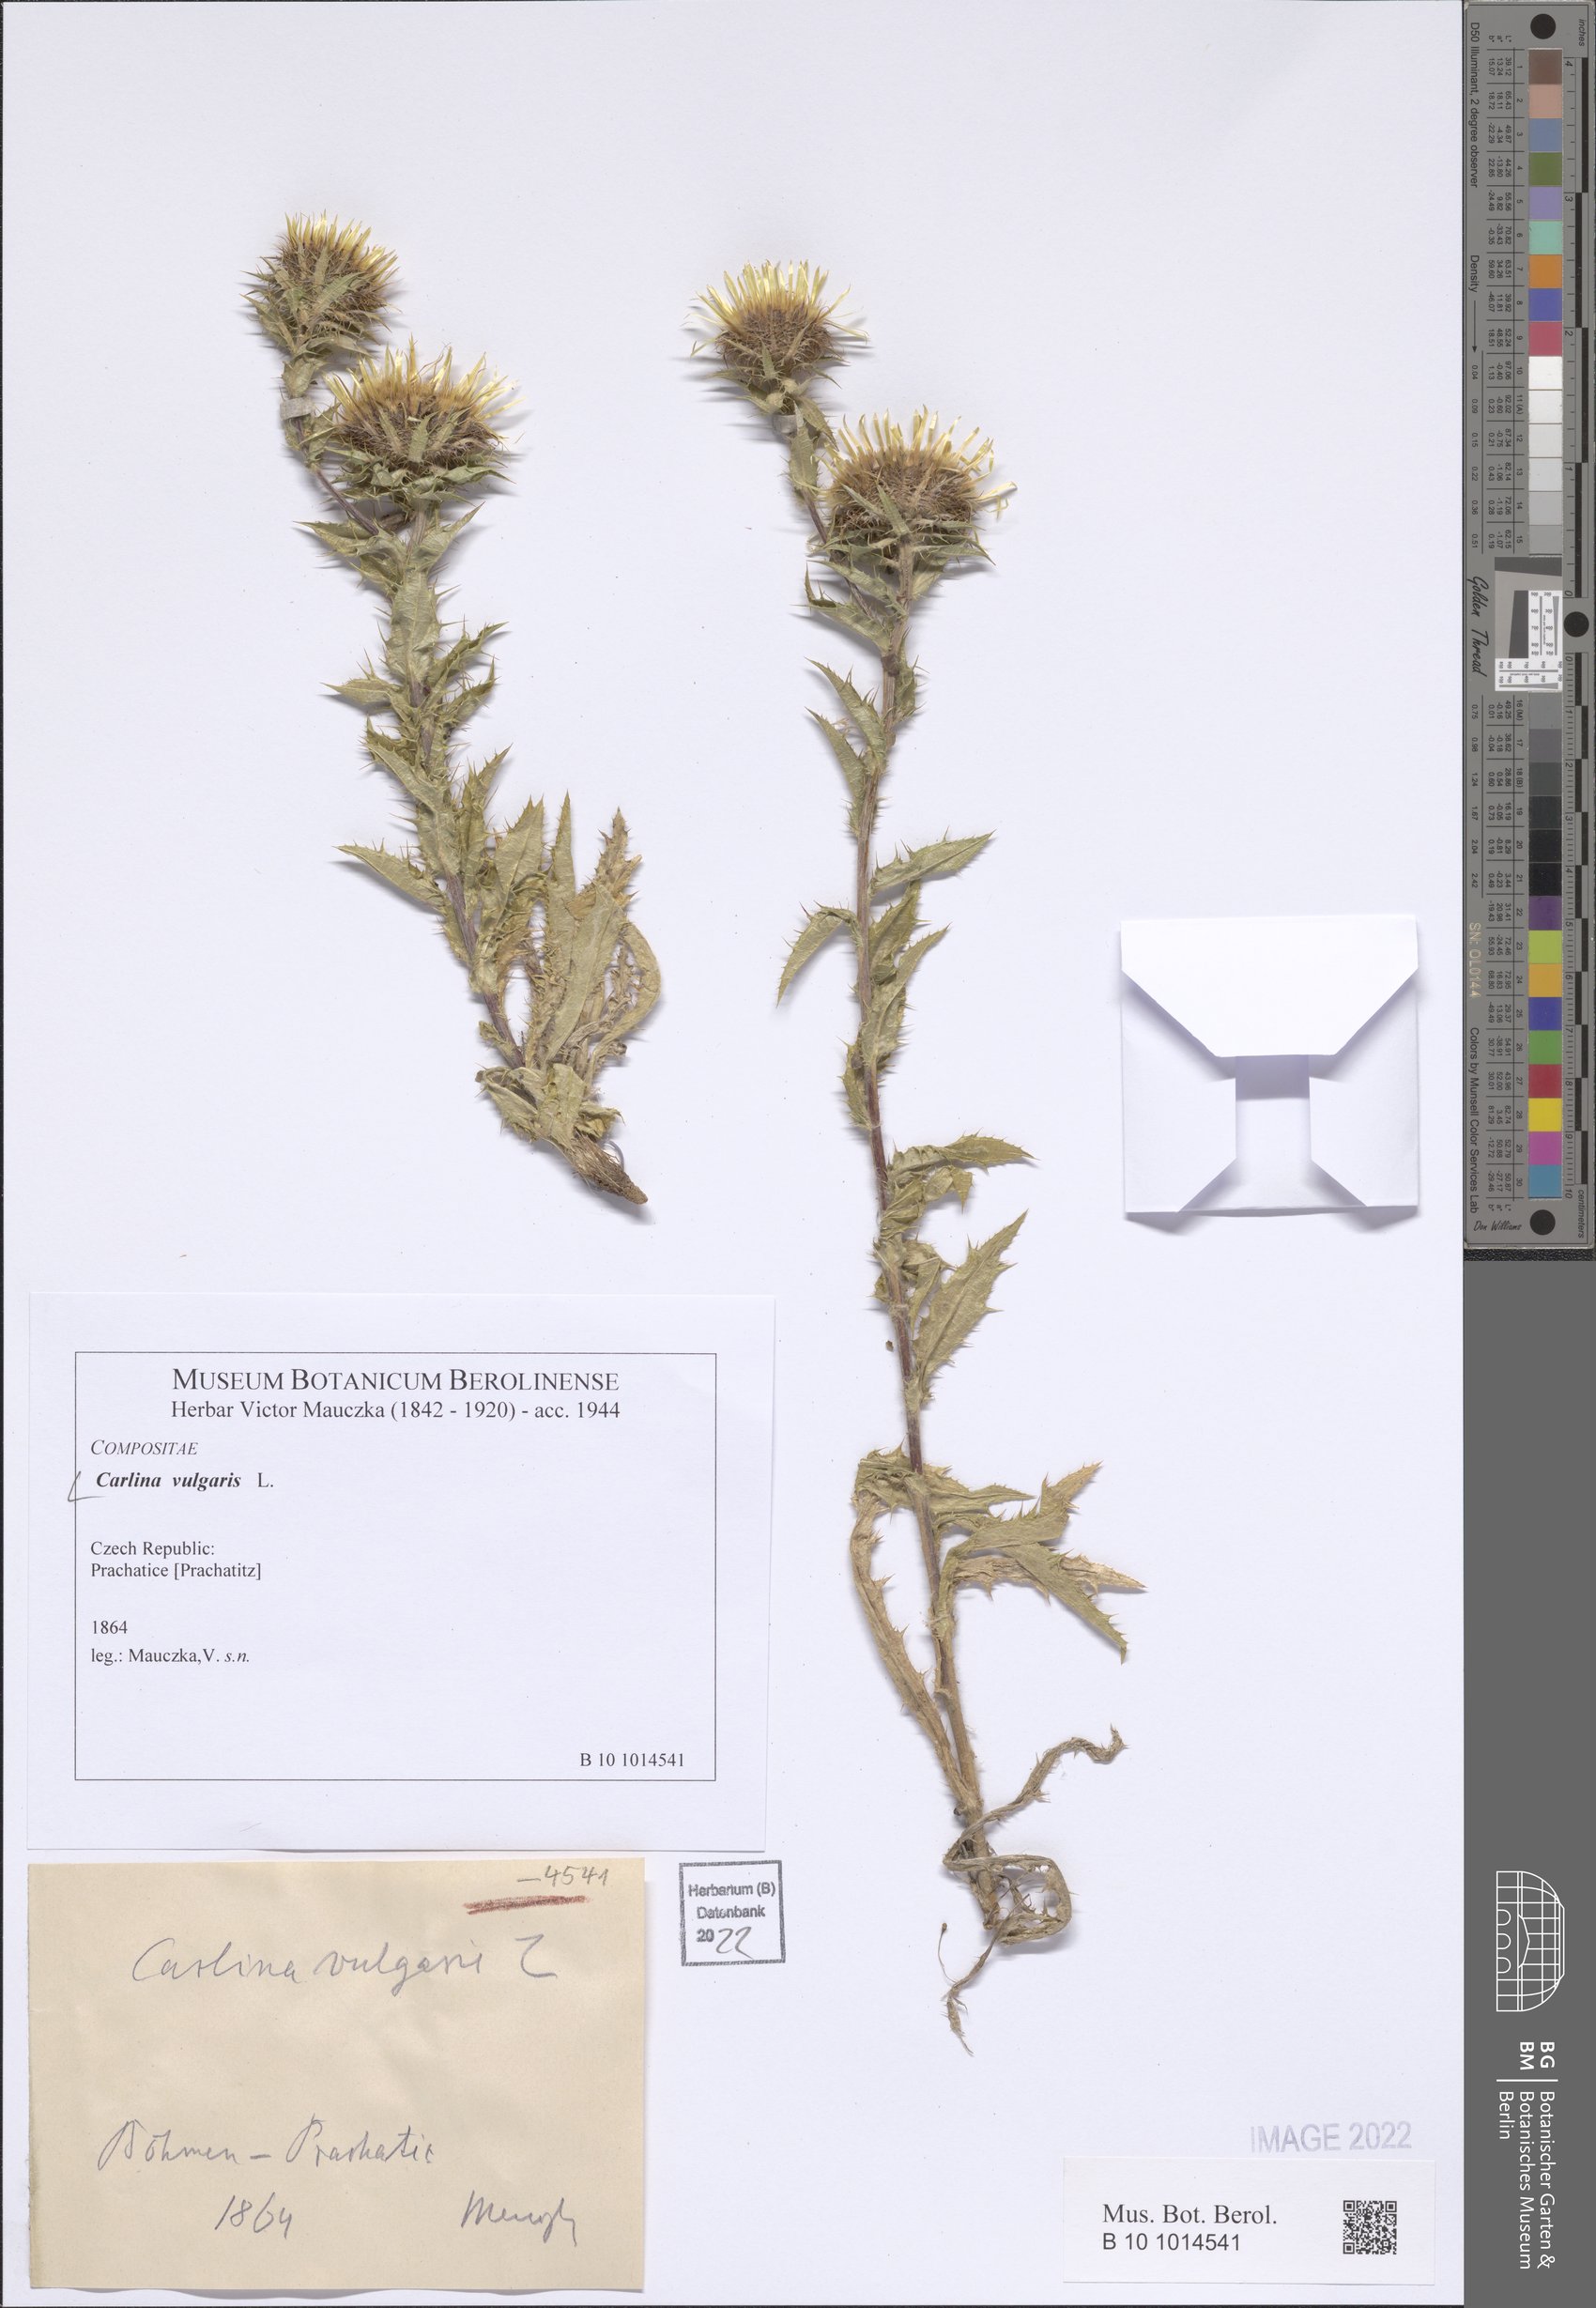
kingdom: Plantae
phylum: Tracheophyta
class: Magnoliopsida
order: Asterales
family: Asteraceae
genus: Carlina
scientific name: Carlina vulgaris
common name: Carline thistle
